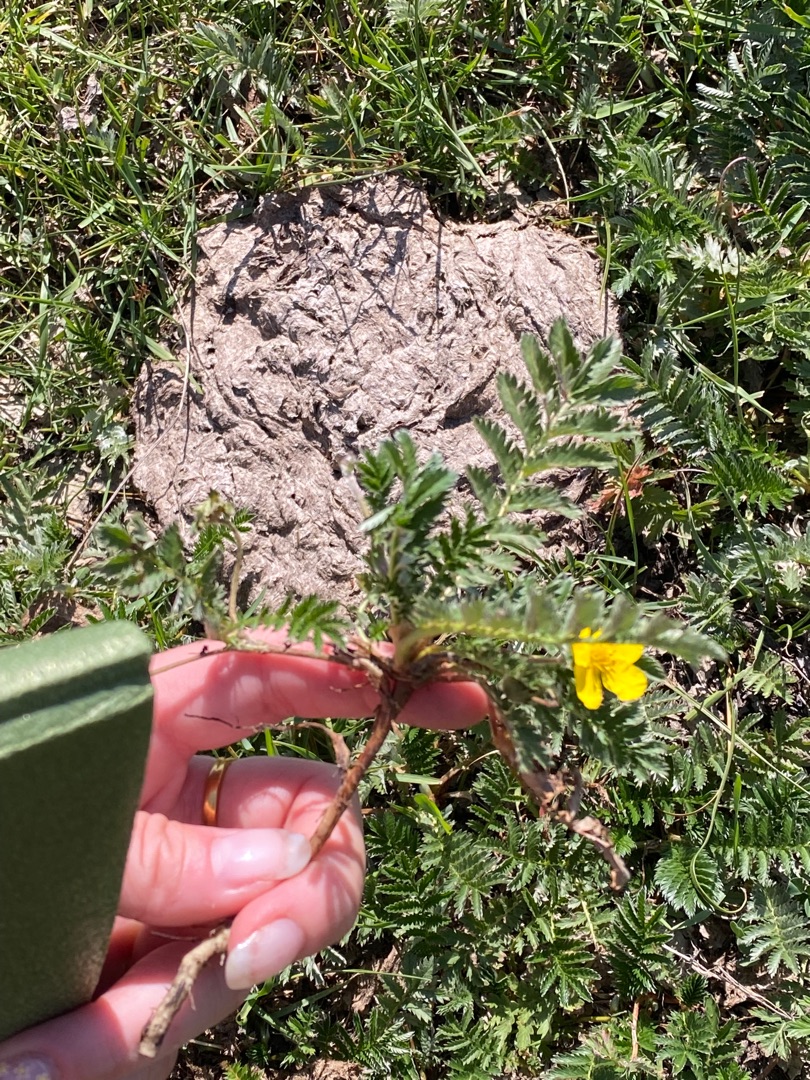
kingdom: Plantae
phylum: Tracheophyta
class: Magnoliopsida
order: Rosales
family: Rosaceae
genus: Argentina
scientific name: Argentina anserina
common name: Gåsepotentil
